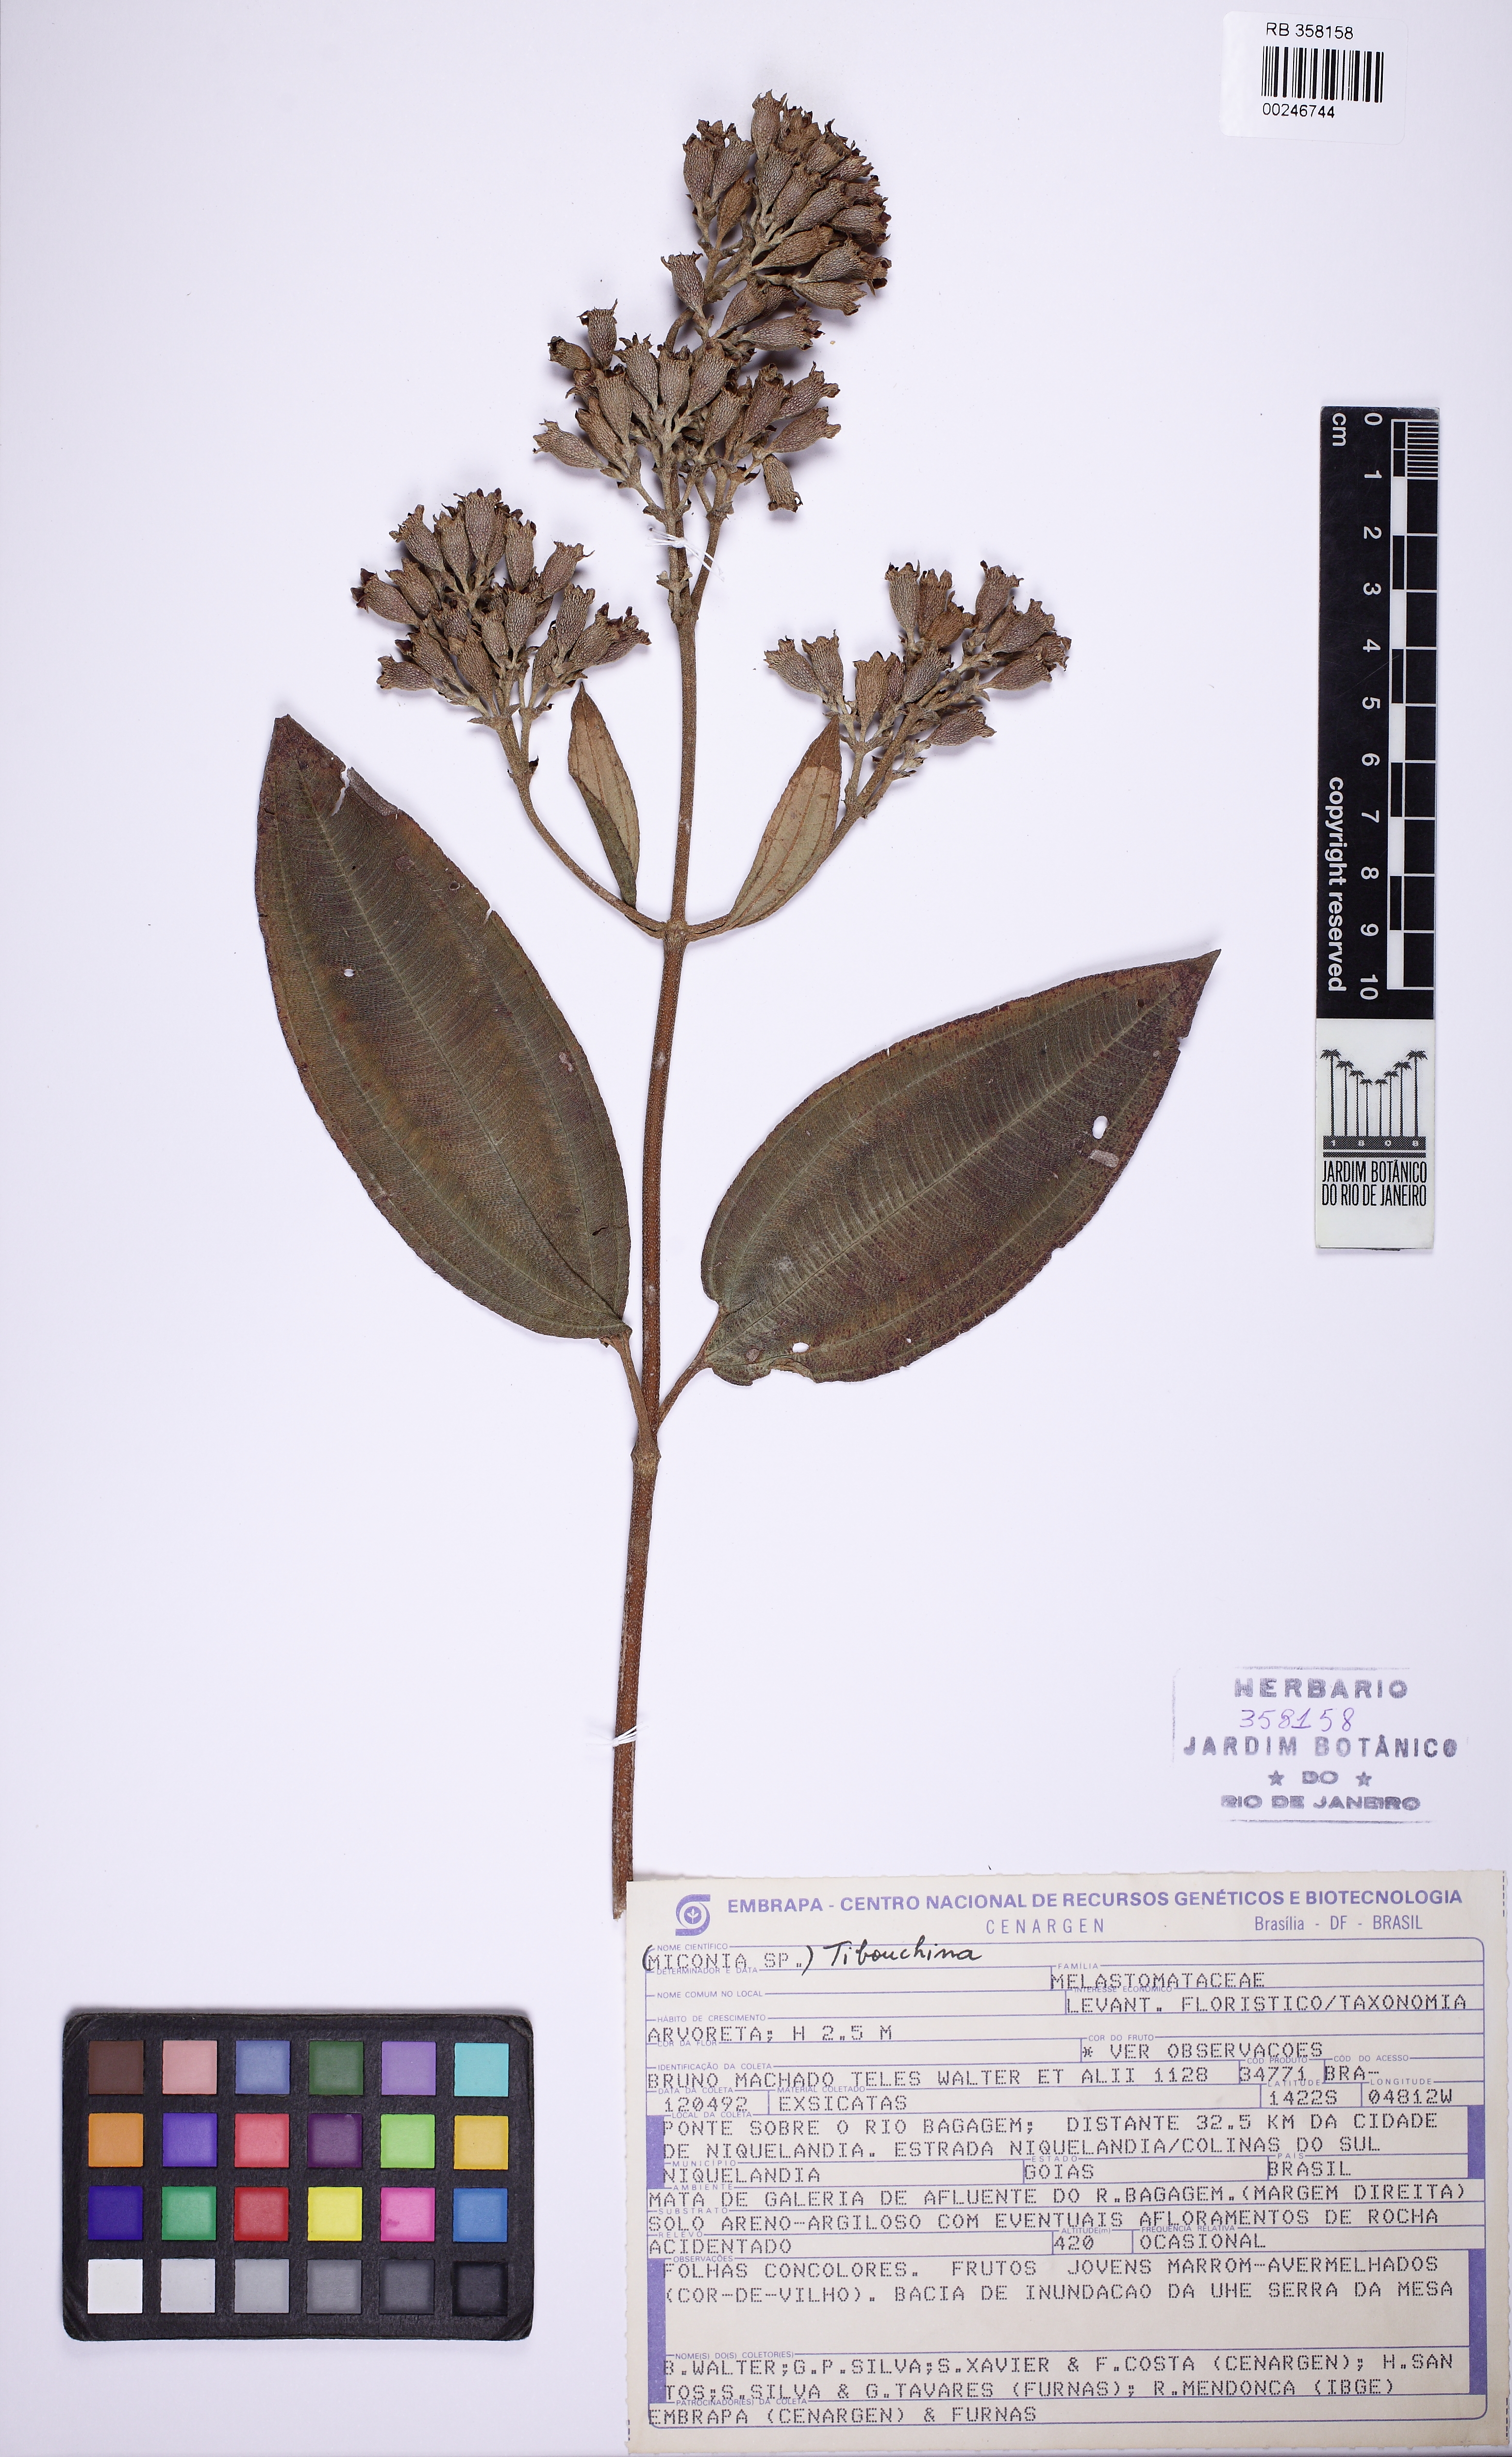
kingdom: Plantae
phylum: Tracheophyta
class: Magnoliopsida
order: Myrtales
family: Melastomataceae
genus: Tibouchina
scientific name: Tibouchina
